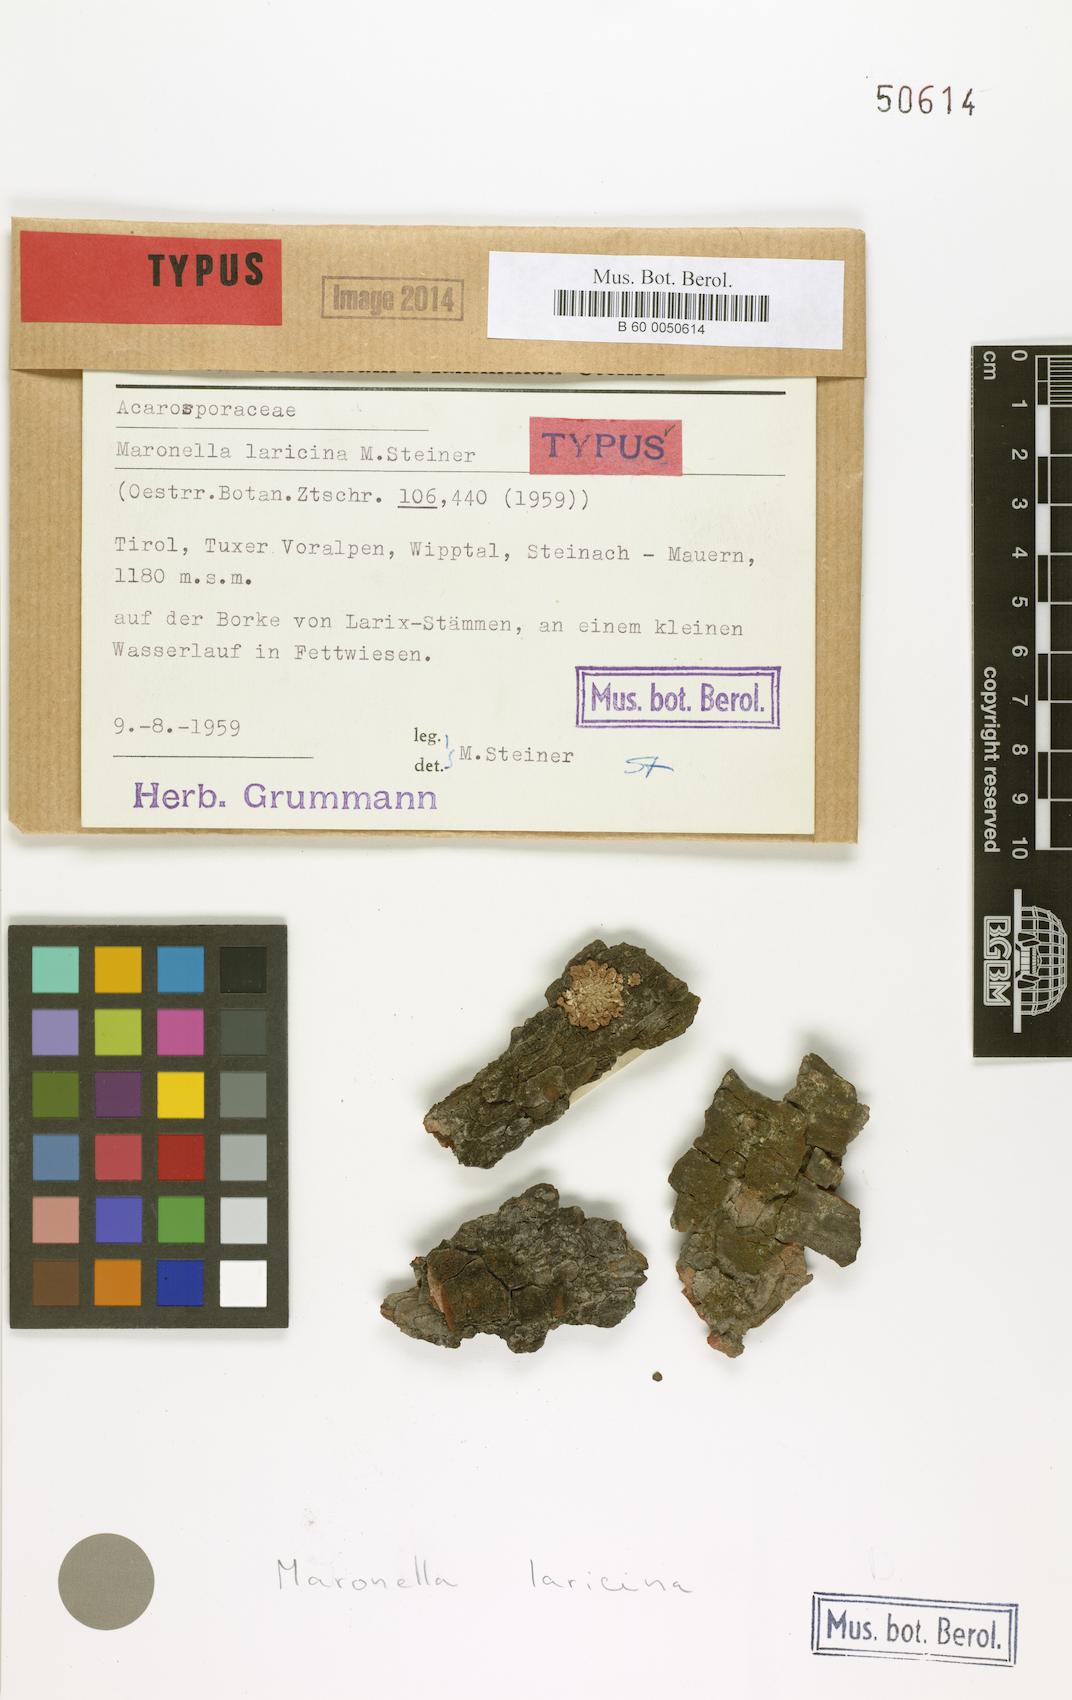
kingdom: Fungi
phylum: Ascomycota
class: Lecanoromycetes
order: Acarosporales
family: Acarosporaceae
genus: Maronella
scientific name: Maronella laricina
